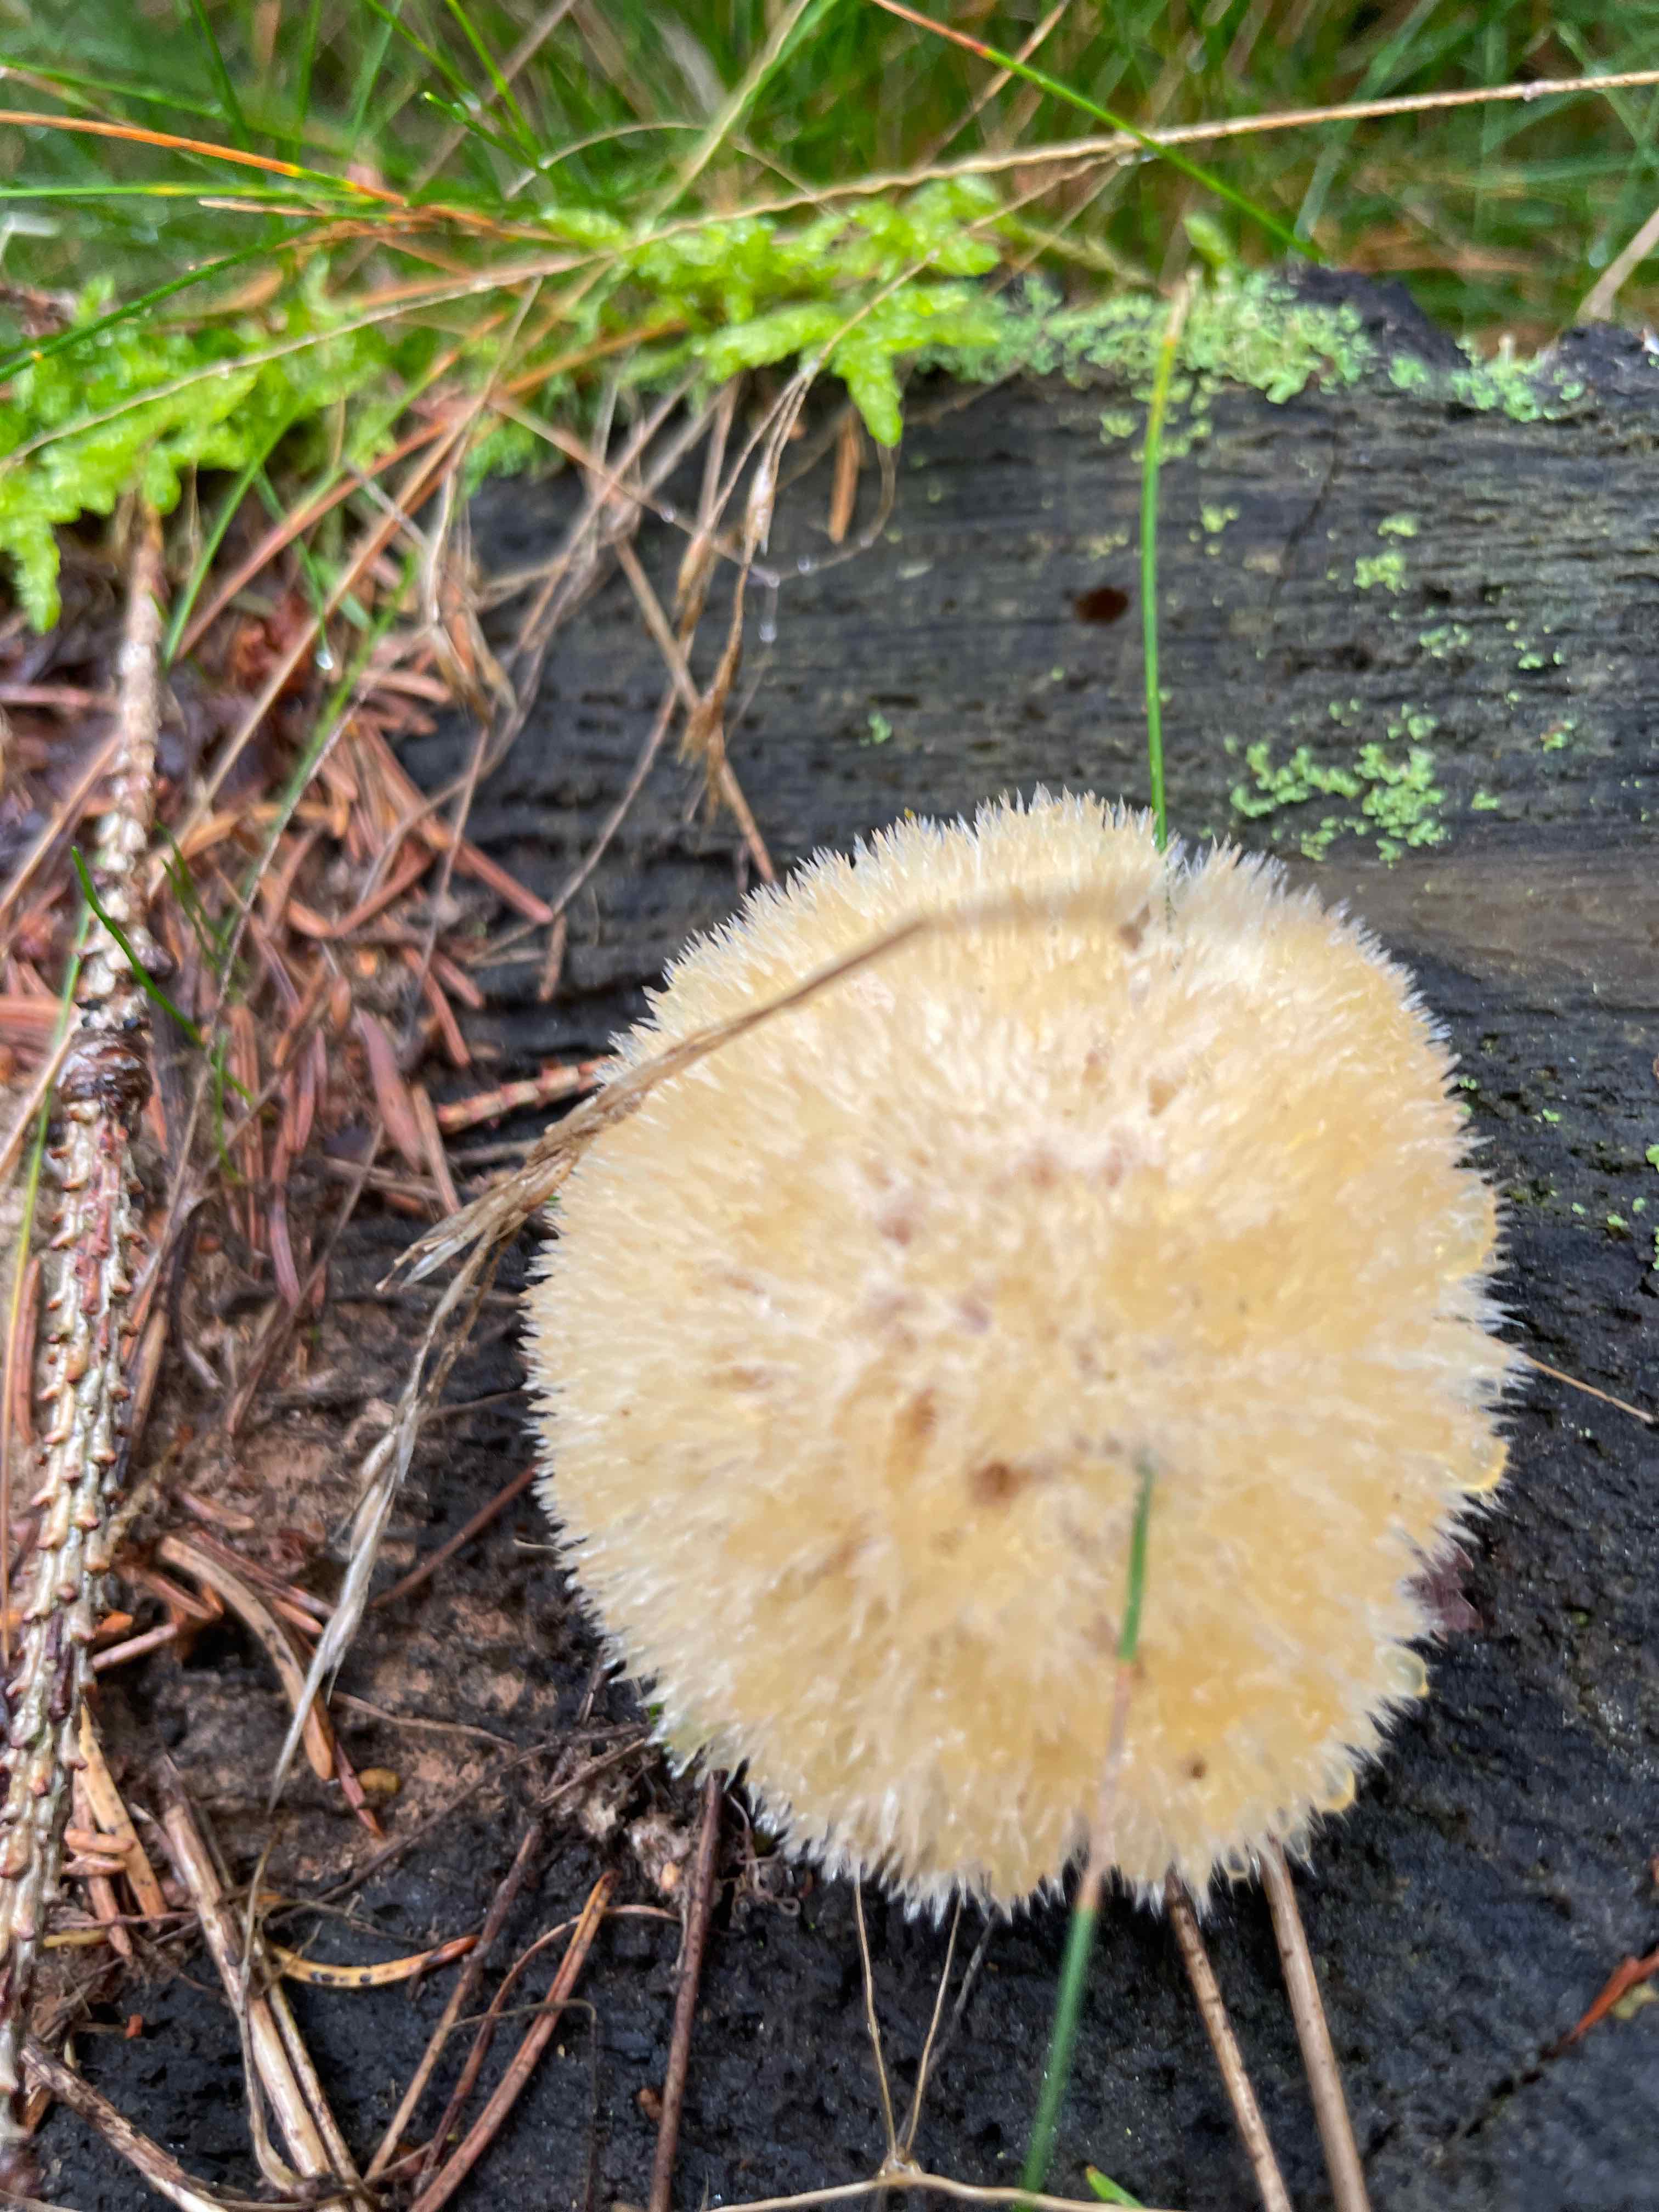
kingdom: Fungi
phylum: Basidiomycota
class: Agaricomycetes
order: Polyporales
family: Dacryobolaceae
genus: Postia
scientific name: Postia ptychogaster
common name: støvende kødporesvamp
